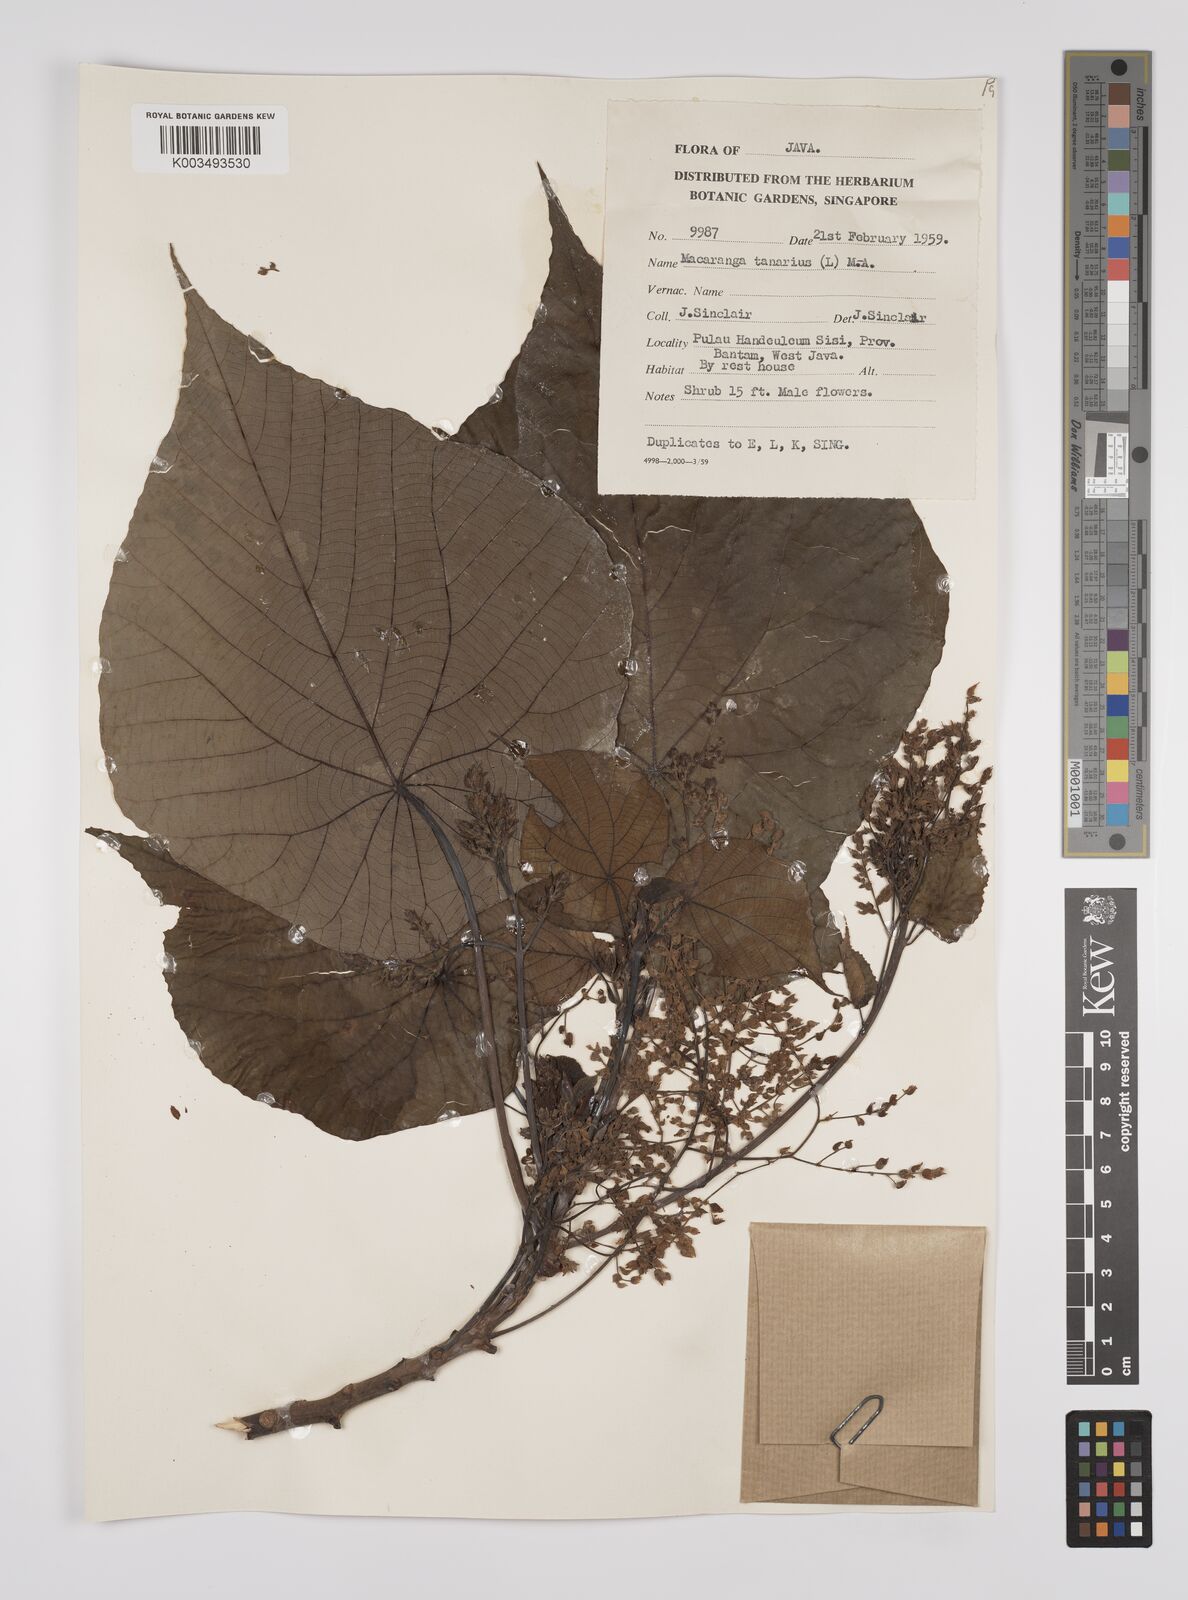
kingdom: Plantae
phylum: Tracheophyta
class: Magnoliopsida
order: Malpighiales
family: Euphorbiaceae
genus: Macaranga
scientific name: Macaranga tanarius
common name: Parasol leaf tree
